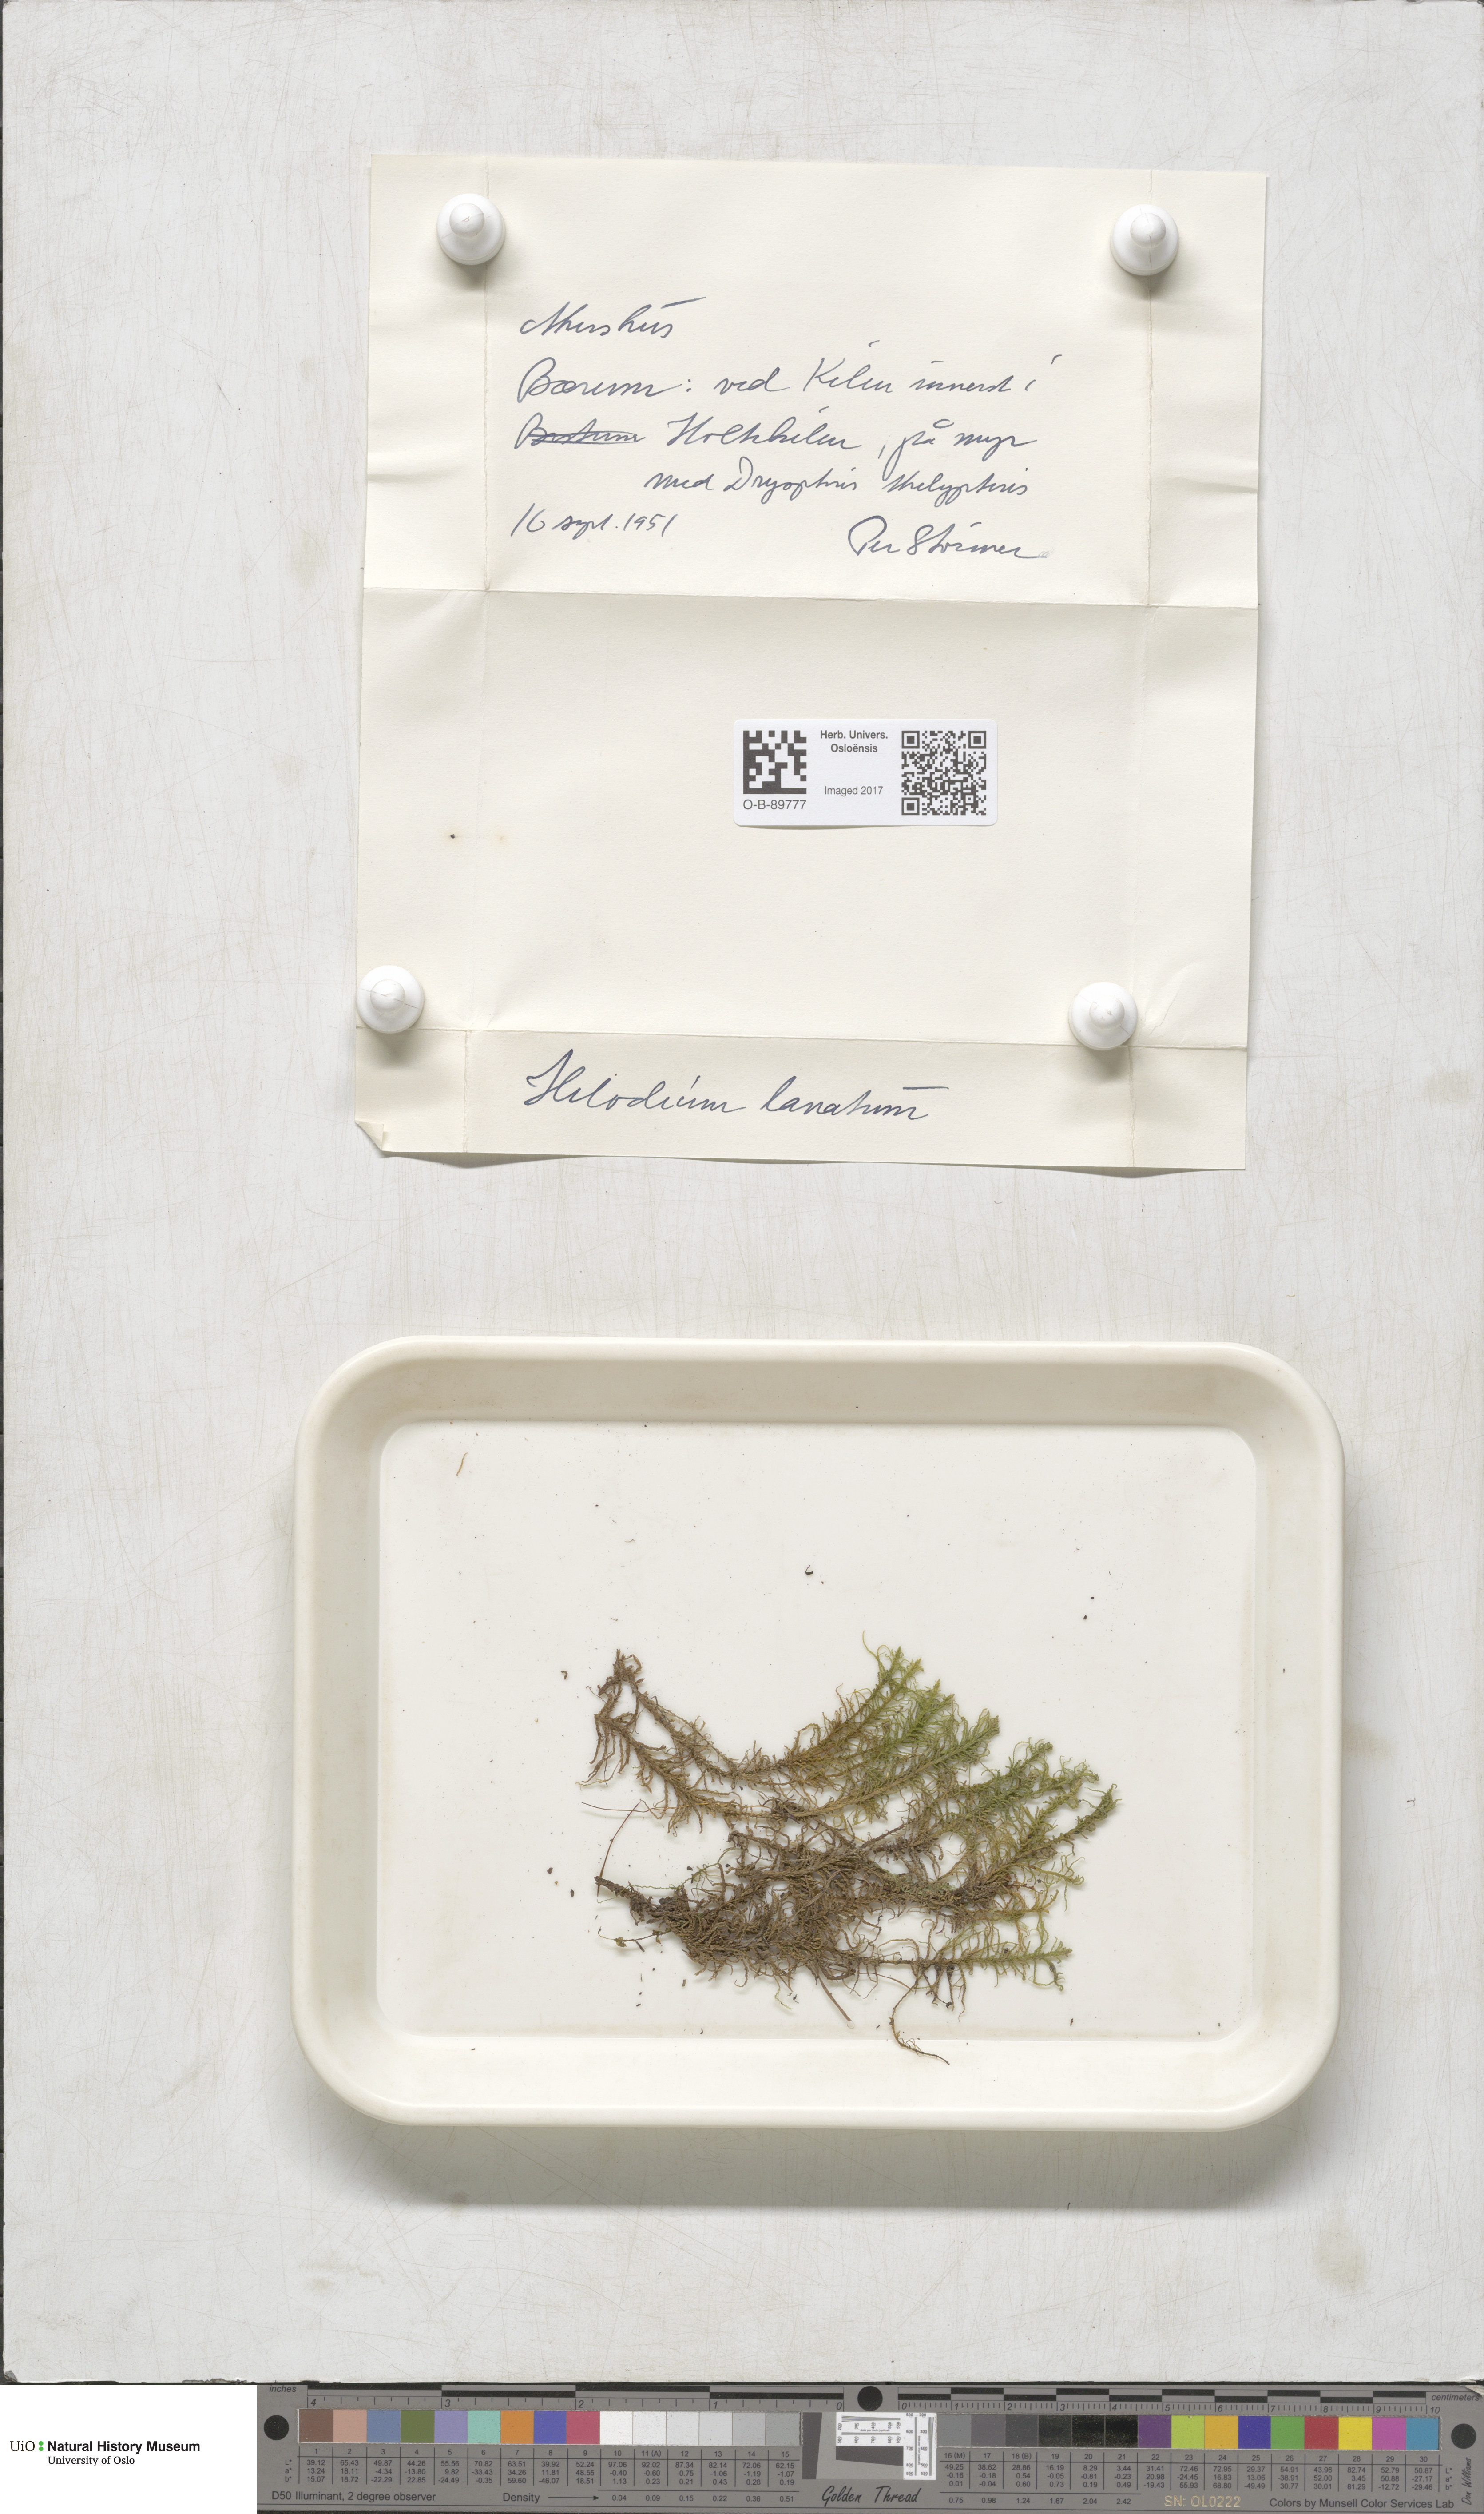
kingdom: Plantae
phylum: Bryophyta
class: Bryopsida
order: Hypnales
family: Helodiaceae
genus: Helodium
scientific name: Helodium blandowii
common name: Blandow's tamarisk-moss
